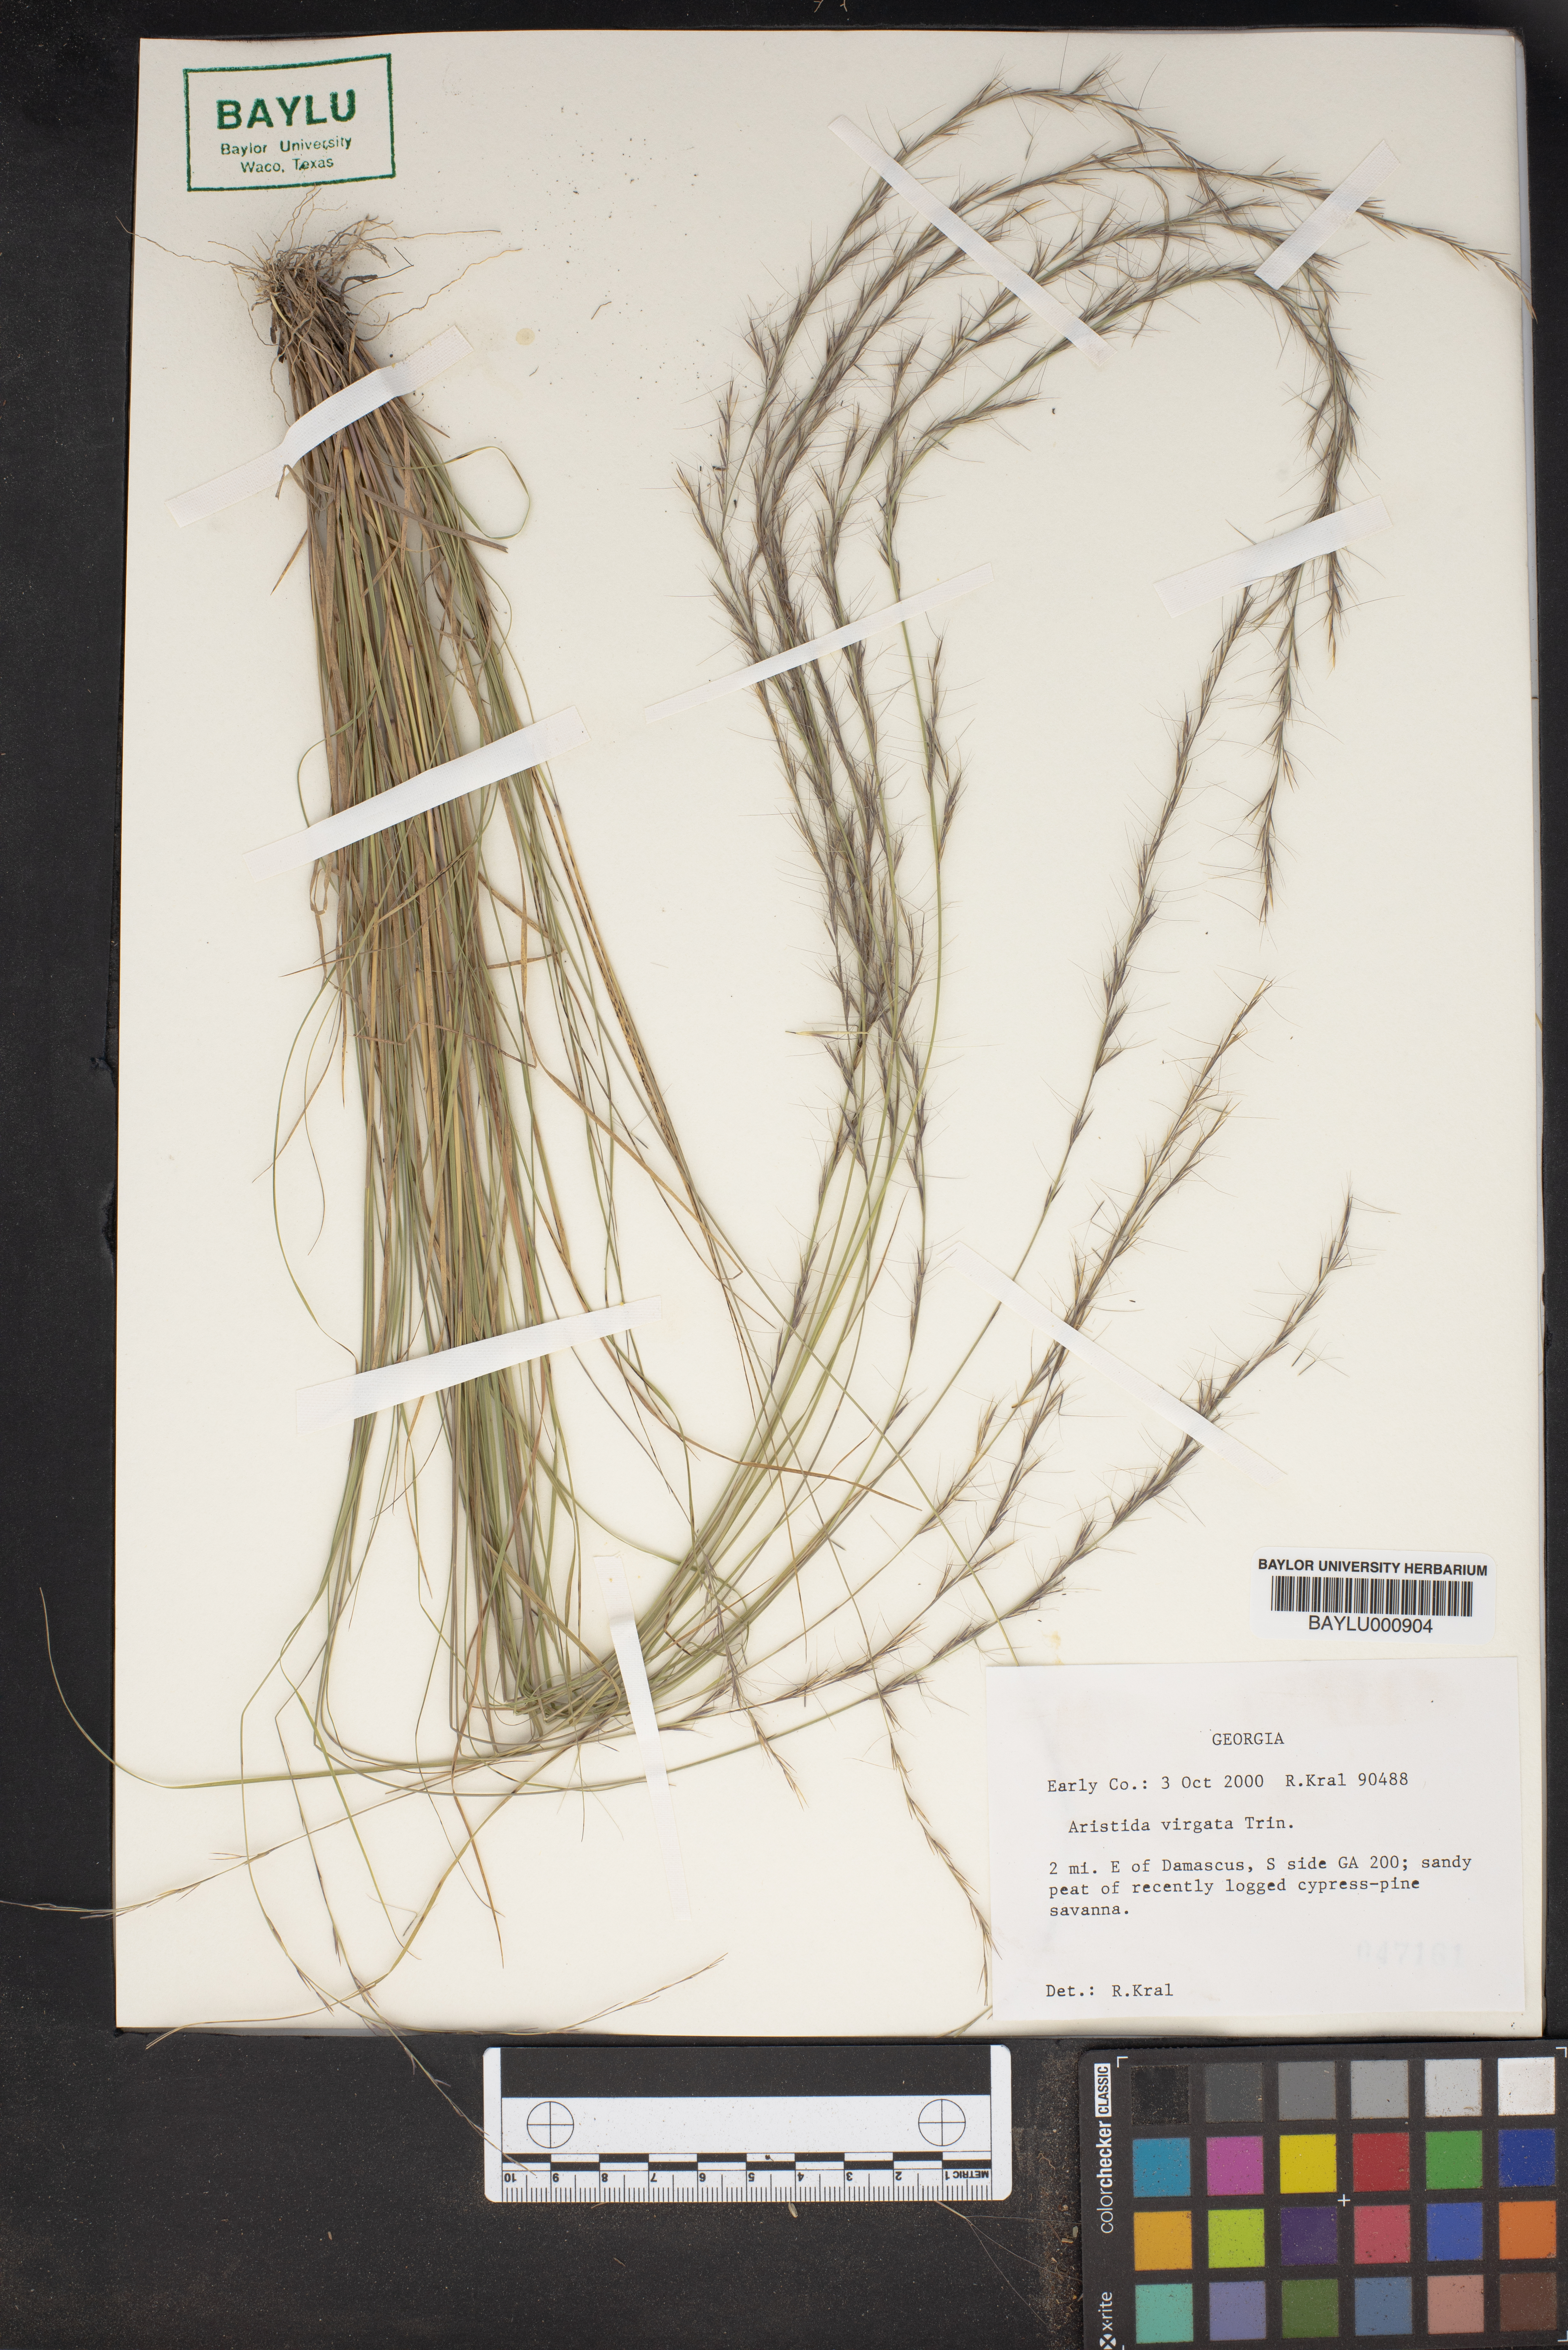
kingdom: Plantae
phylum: Tracheophyta
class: Liliopsida
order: Poales
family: Poaceae
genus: Aristida
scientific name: Aristida virgata
